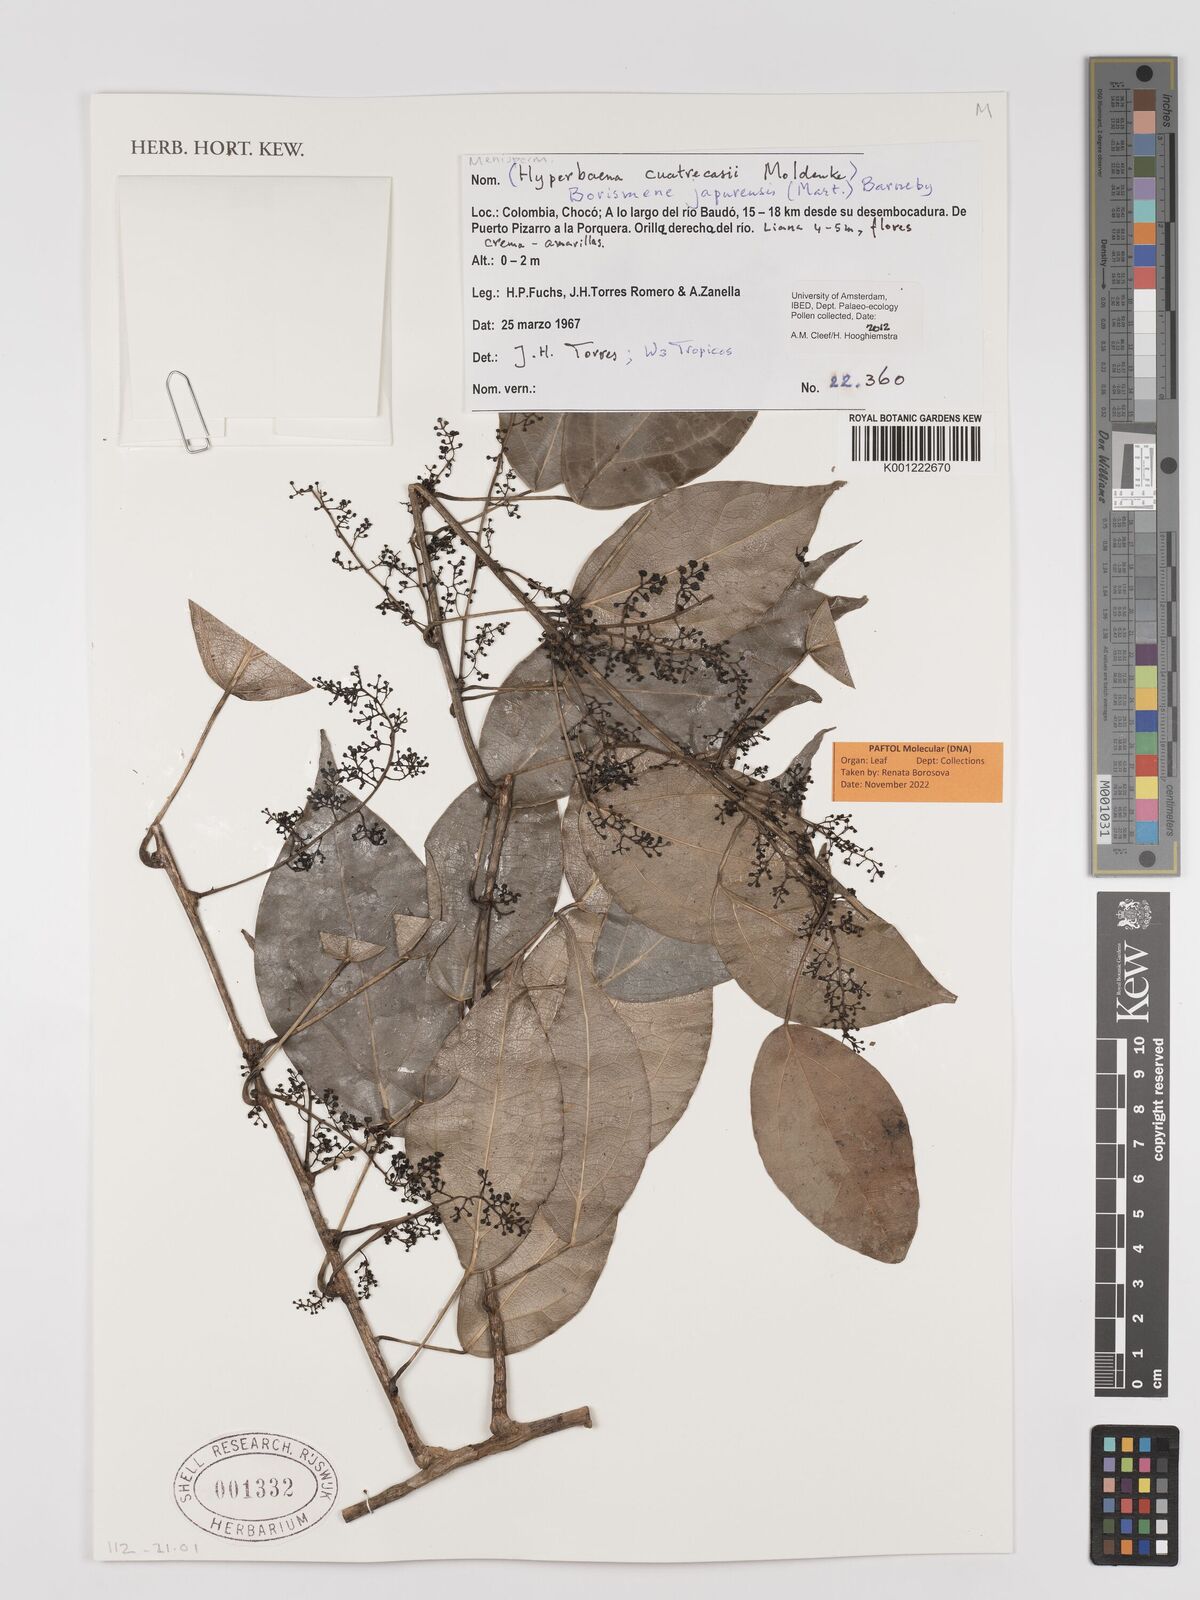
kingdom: Plantae
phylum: Tracheophyta
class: Magnoliopsida
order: Ranunculales
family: Menispermaceae
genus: Borismene
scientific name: Borismene japurensis
